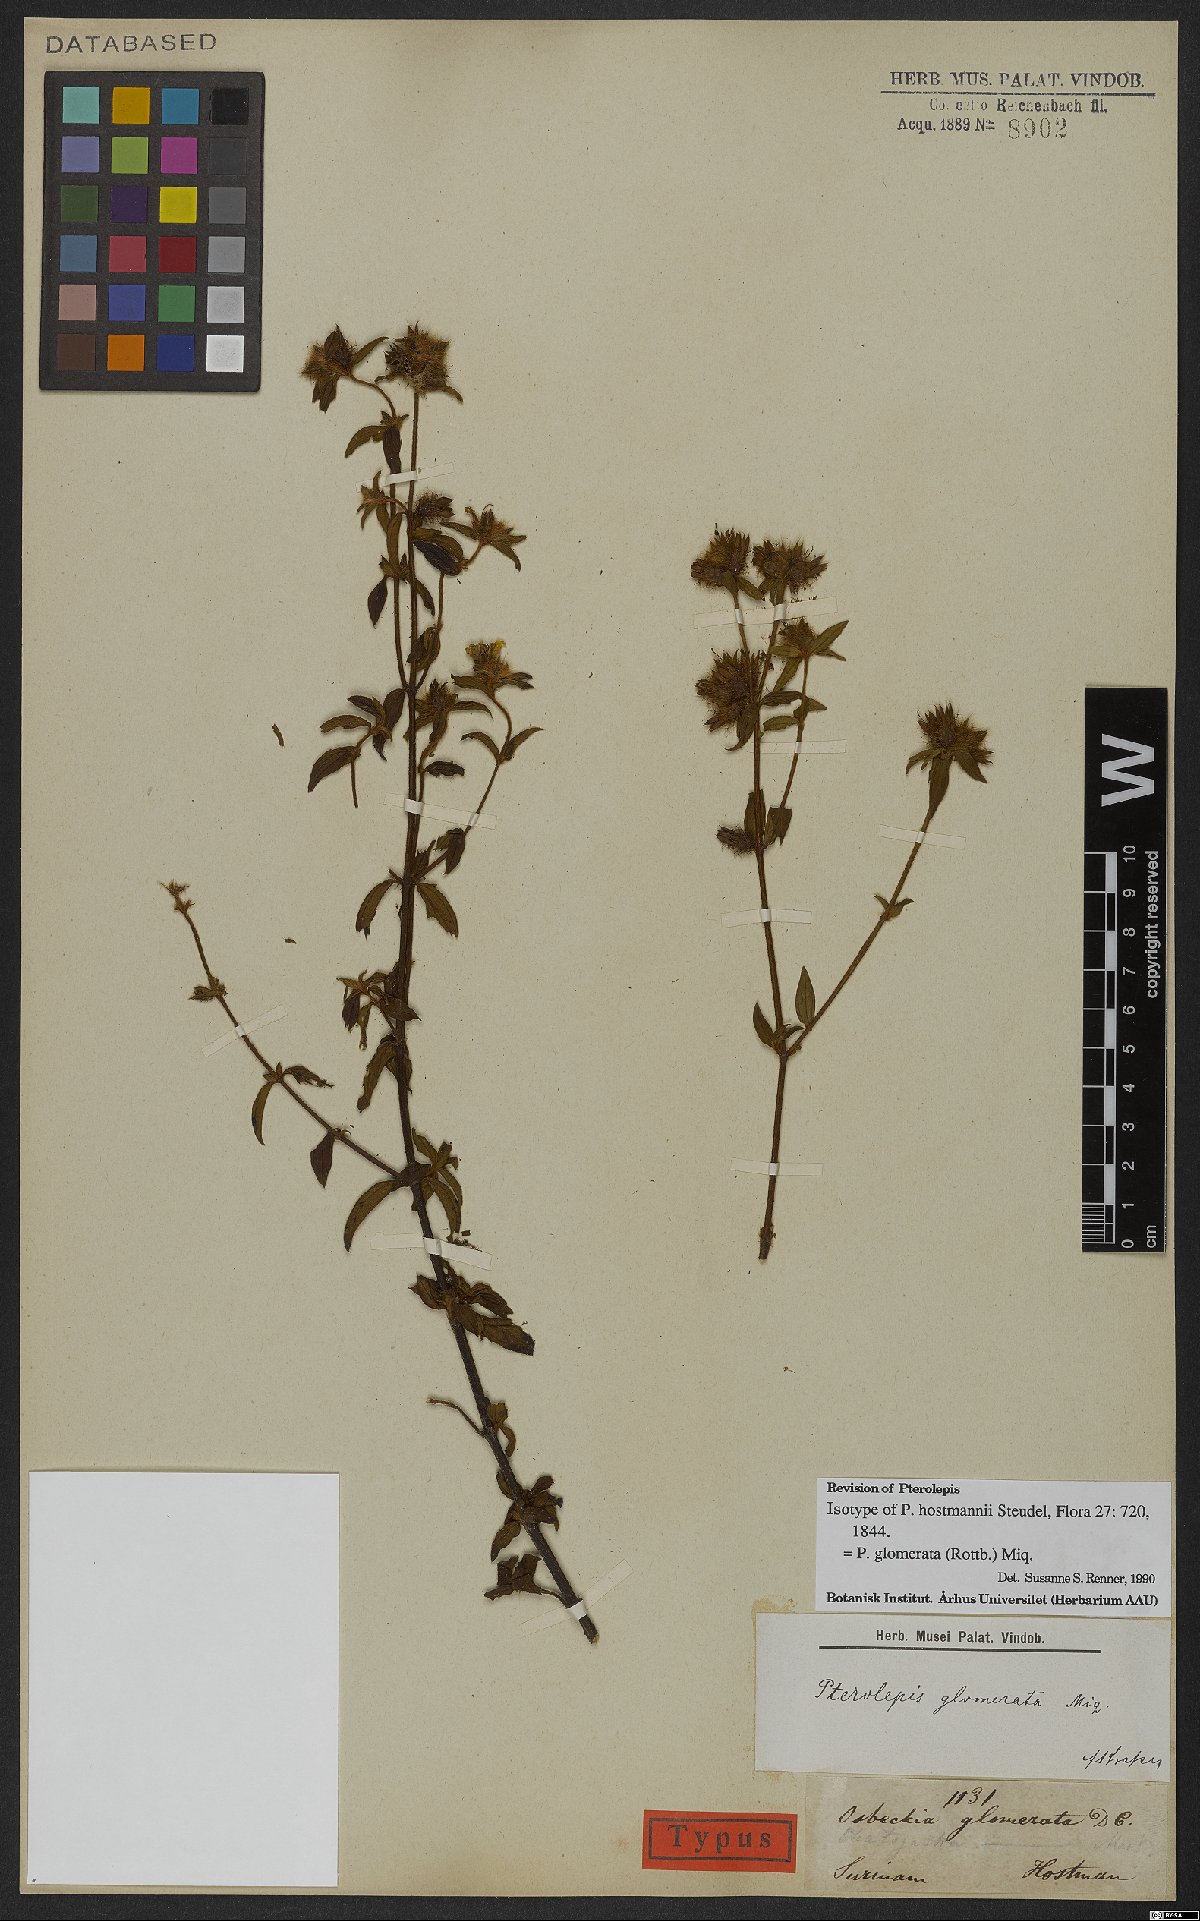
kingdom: Plantae
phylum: Tracheophyta
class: Magnoliopsida
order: Myrtales
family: Melastomataceae
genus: Pterolepis
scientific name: Pterolepis glomerata
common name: False meadowbeauty
